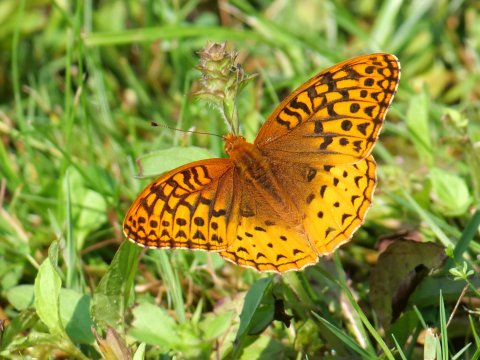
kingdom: Animalia
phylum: Arthropoda
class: Insecta
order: Lepidoptera
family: Nymphalidae
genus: Speyeria
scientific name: Speyeria cybele
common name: Great Spangled Fritillary
